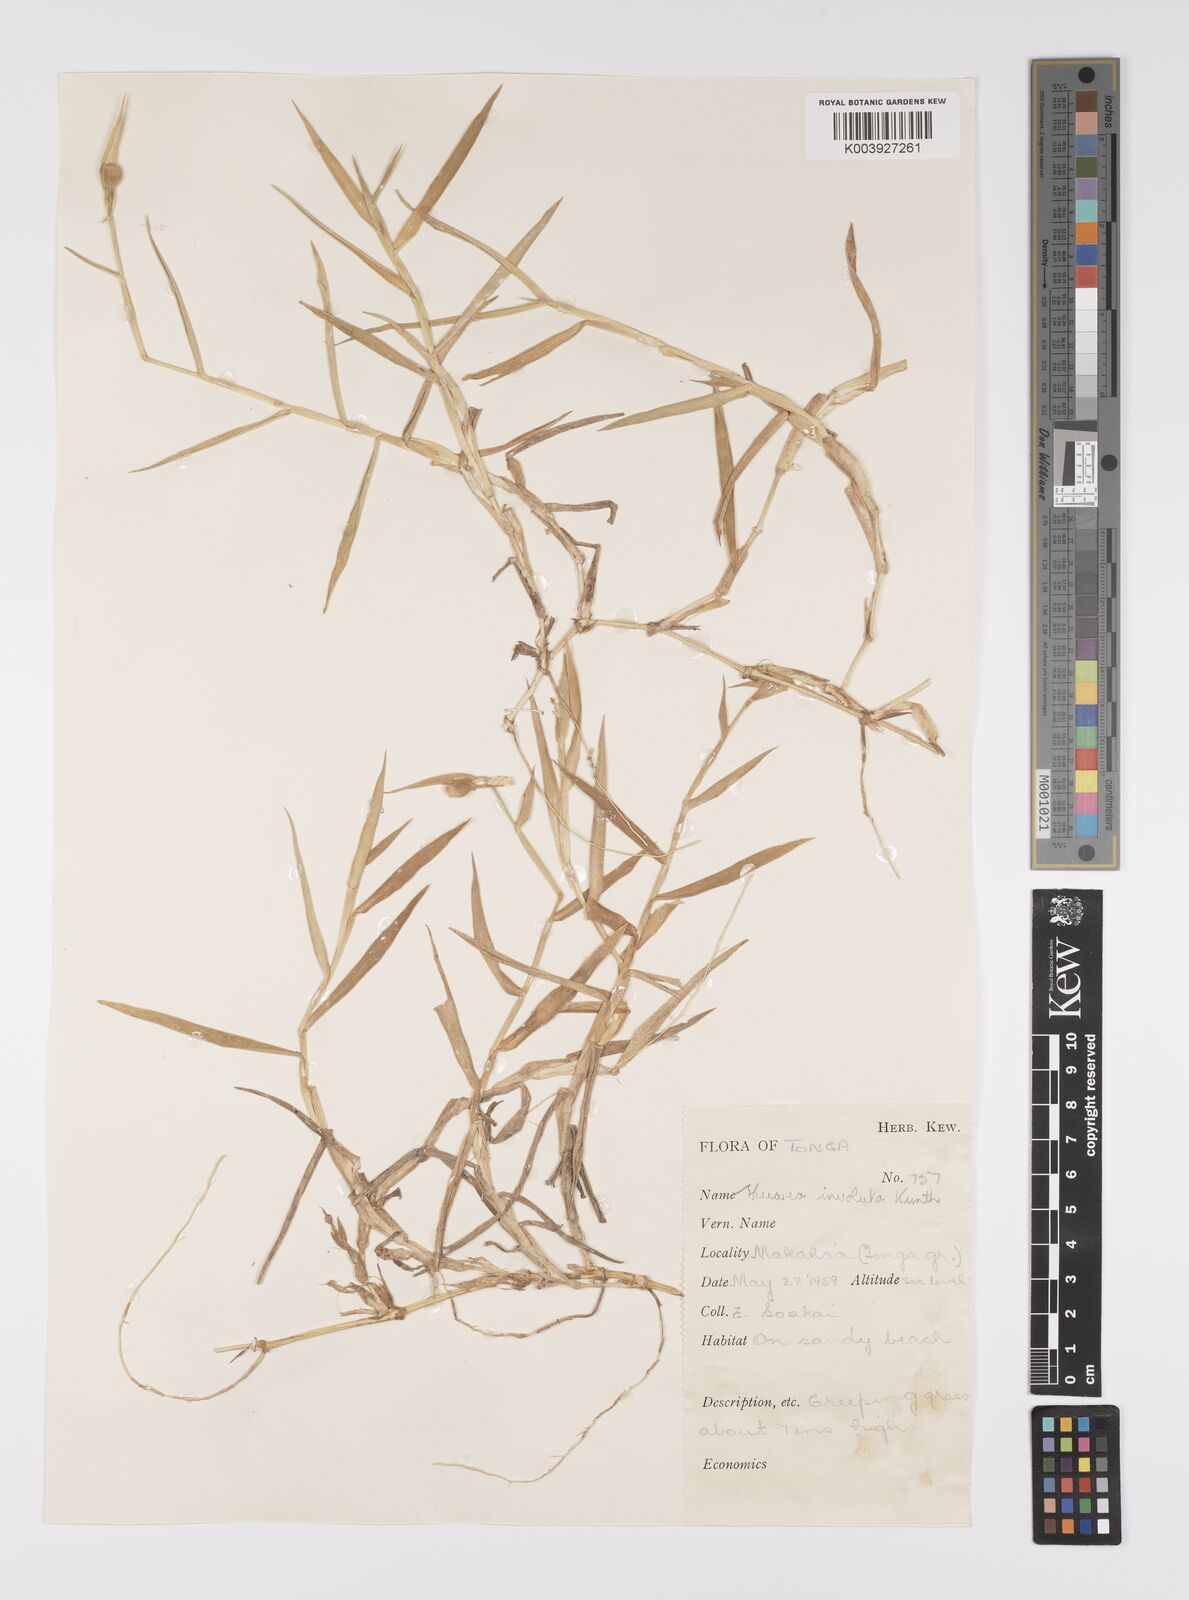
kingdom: Plantae
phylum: Tracheophyta
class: Liliopsida
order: Poales
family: Poaceae
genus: Thuarea
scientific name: Thuarea involuta
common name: Tropical beach grass
